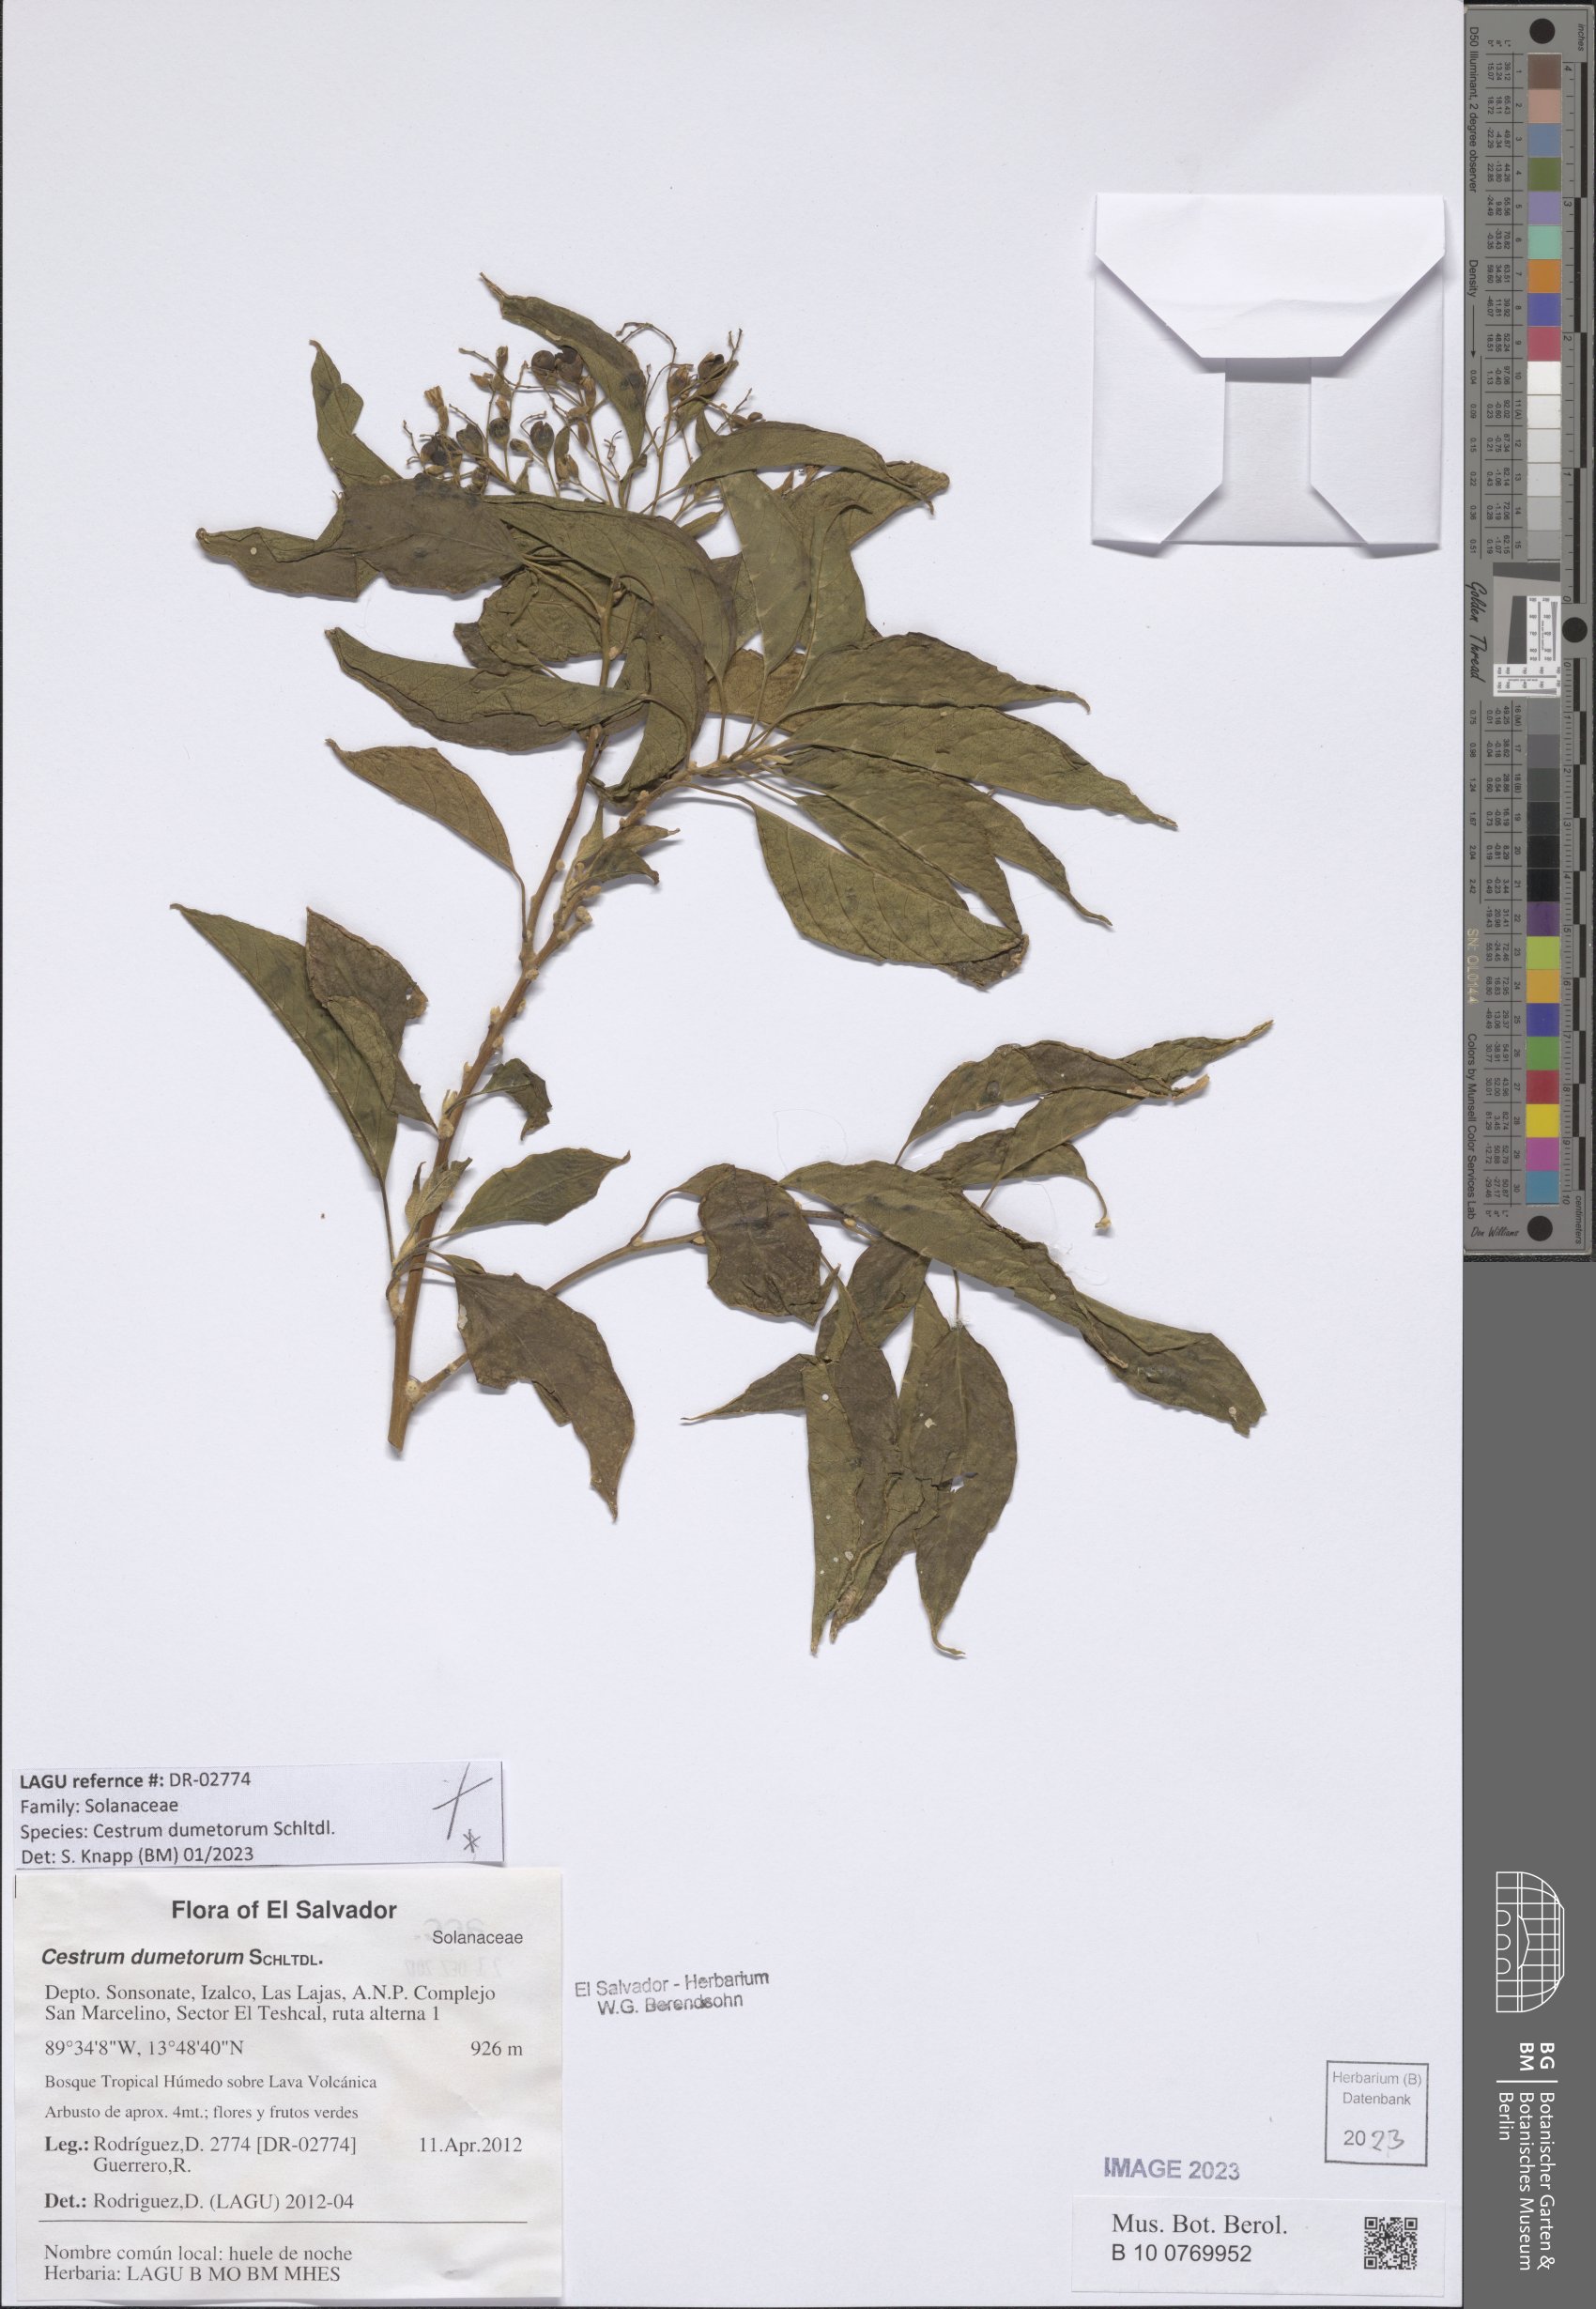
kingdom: Plantae
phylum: Tracheophyta
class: Magnoliopsida
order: Solanales
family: Solanaceae
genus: Cestrum
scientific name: Cestrum dumetorum
